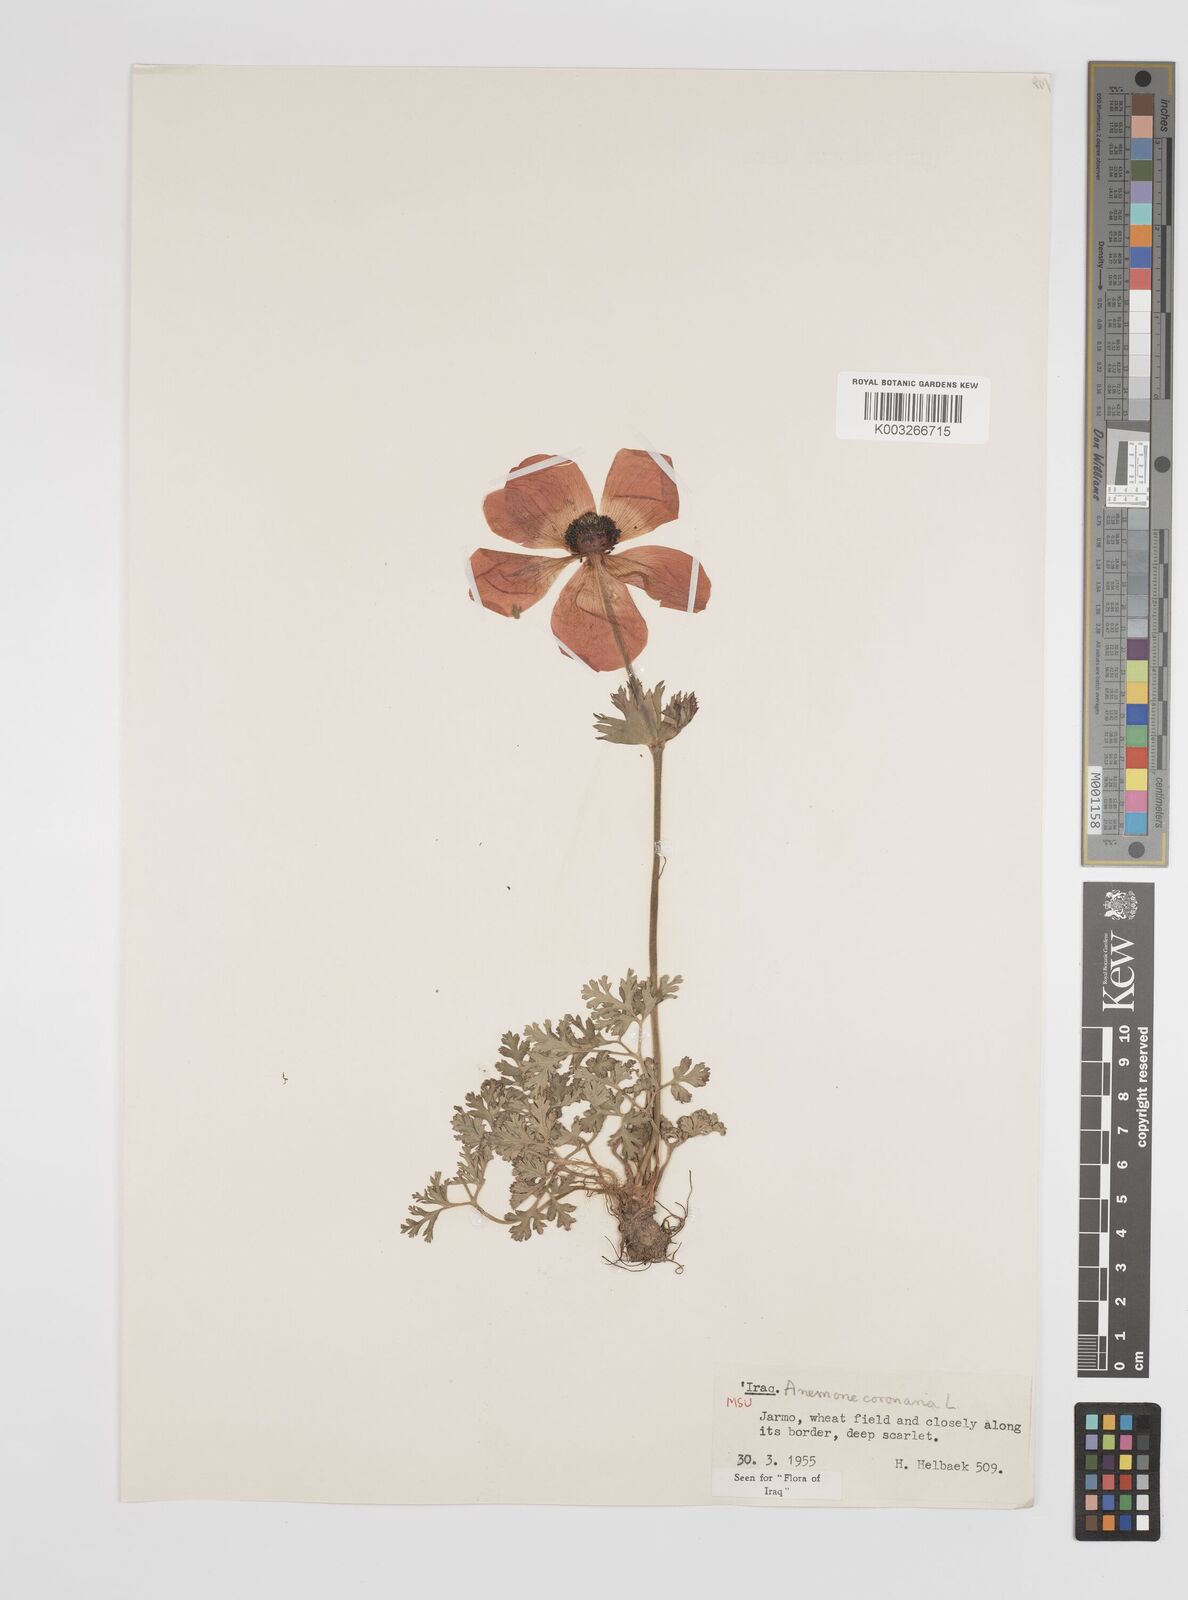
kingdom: Plantae
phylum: Tracheophyta
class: Magnoliopsida
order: Ranunculales
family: Ranunculaceae
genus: Anemone
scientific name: Anemone coronaria
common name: Poppy anemone
